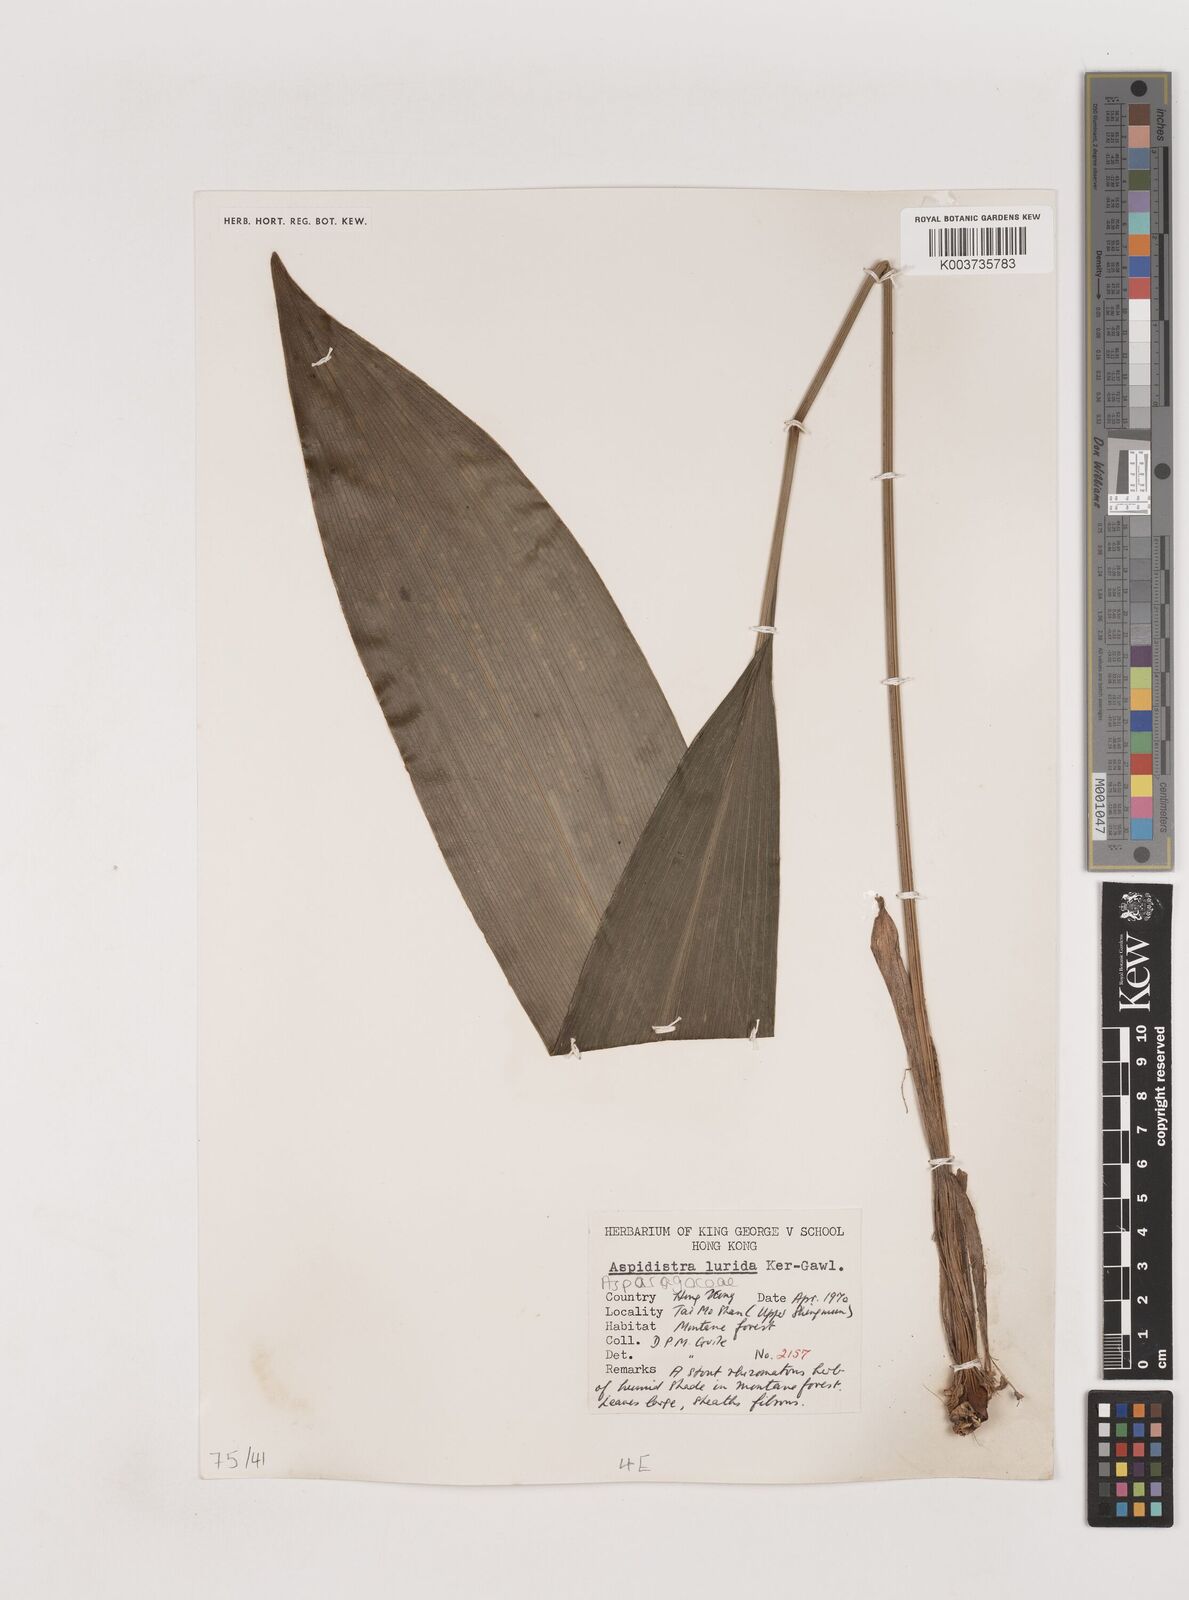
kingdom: Plantae
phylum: Tracheophyta
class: Liliopsida
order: Asparagales
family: Asparagaceae
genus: Aspidistra
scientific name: Aspidistra lurida
